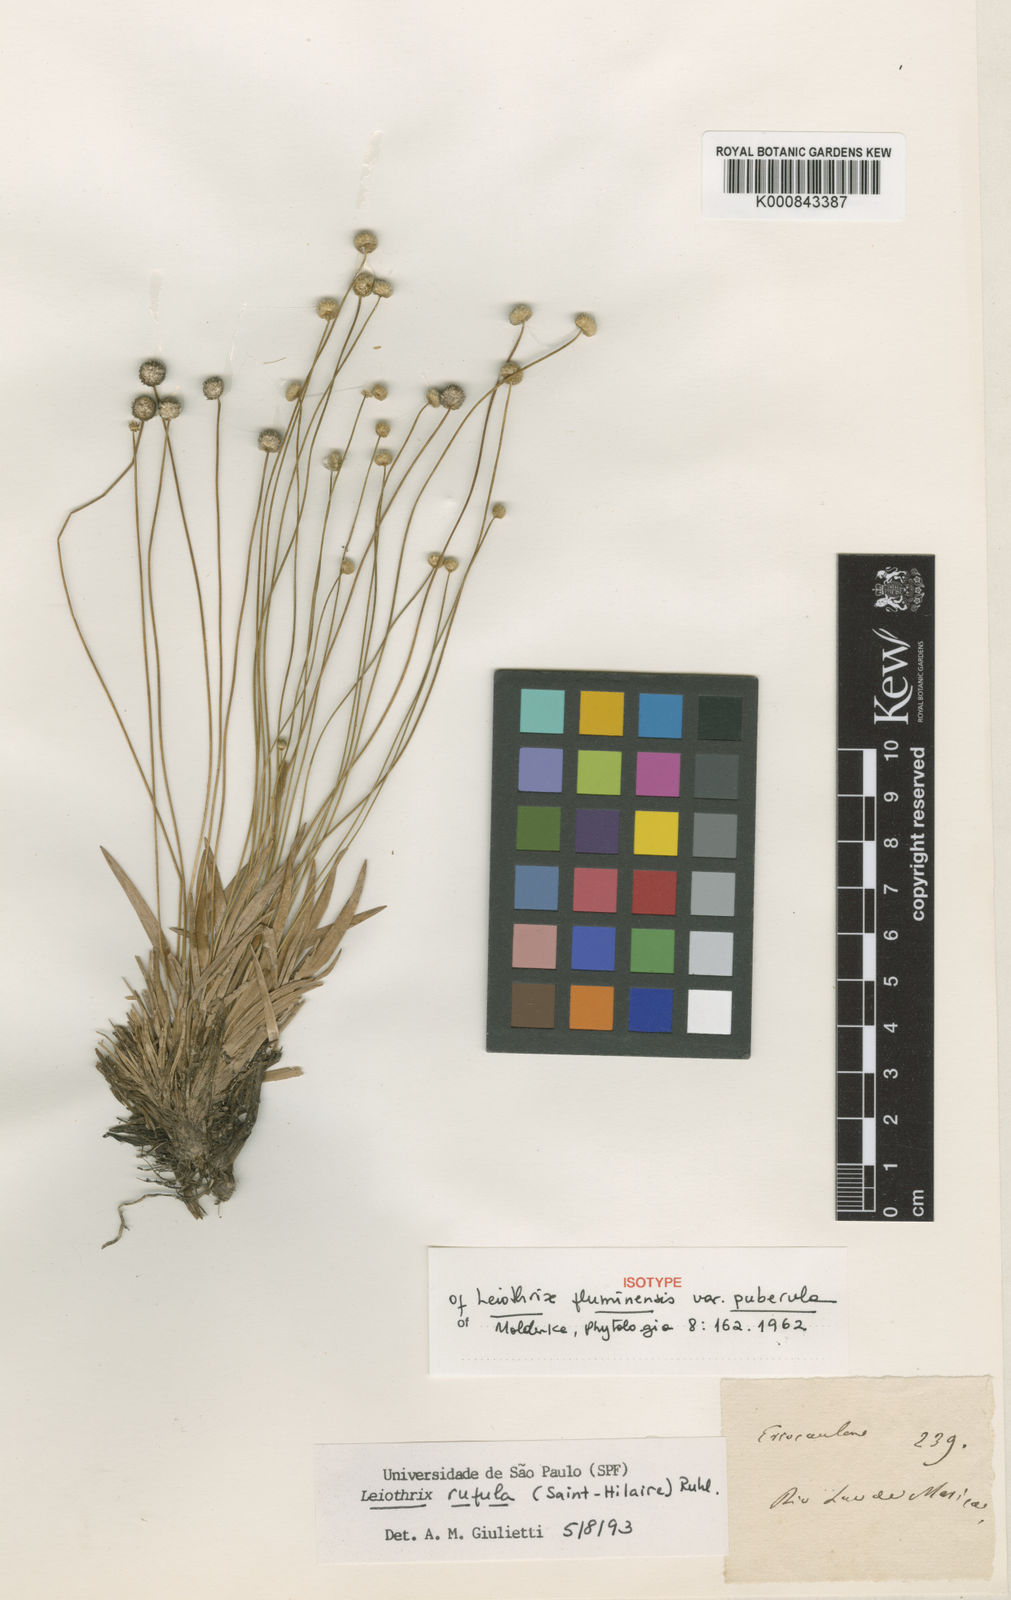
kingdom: Plantae
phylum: Tracheophyta
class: Liliopsida
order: Poales
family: Eriocaulaceae
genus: Leiothrix
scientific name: Leiothrix rufula
